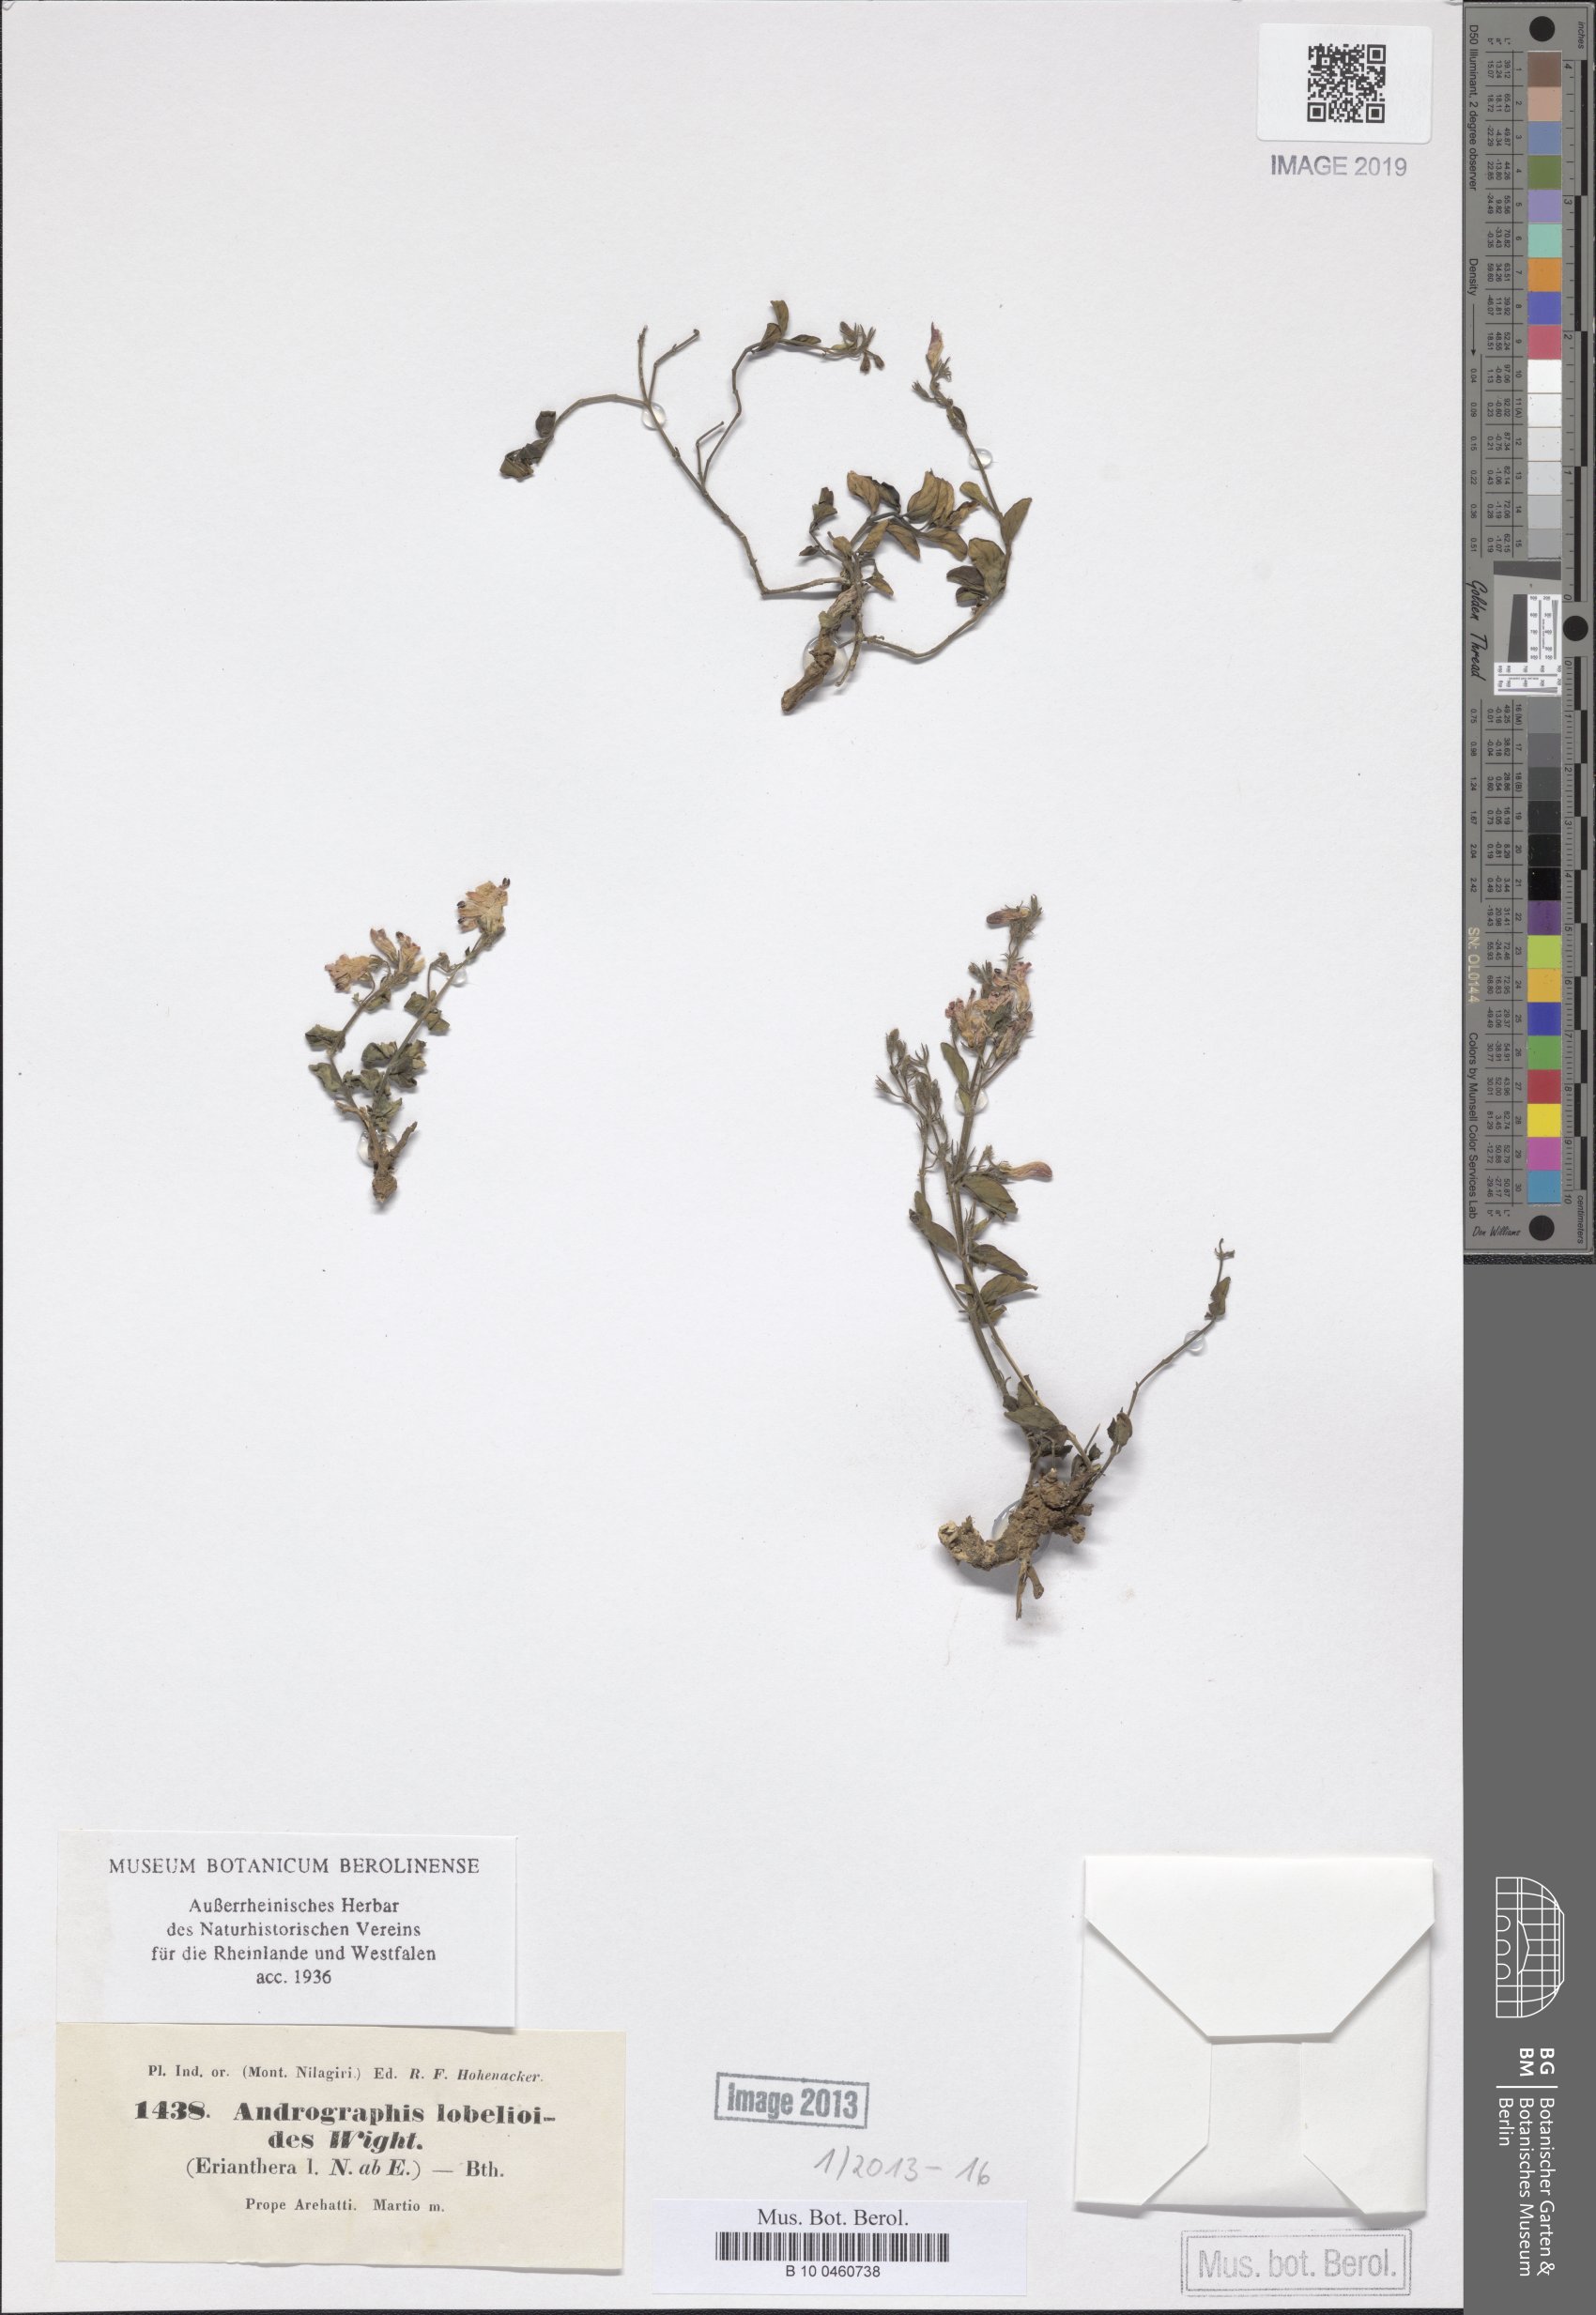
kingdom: Plantae
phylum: Tracheophyta
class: Magnoliopsida
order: Lamiales
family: Acanthaceae
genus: Andrographis
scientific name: Andrographis lobelioides
